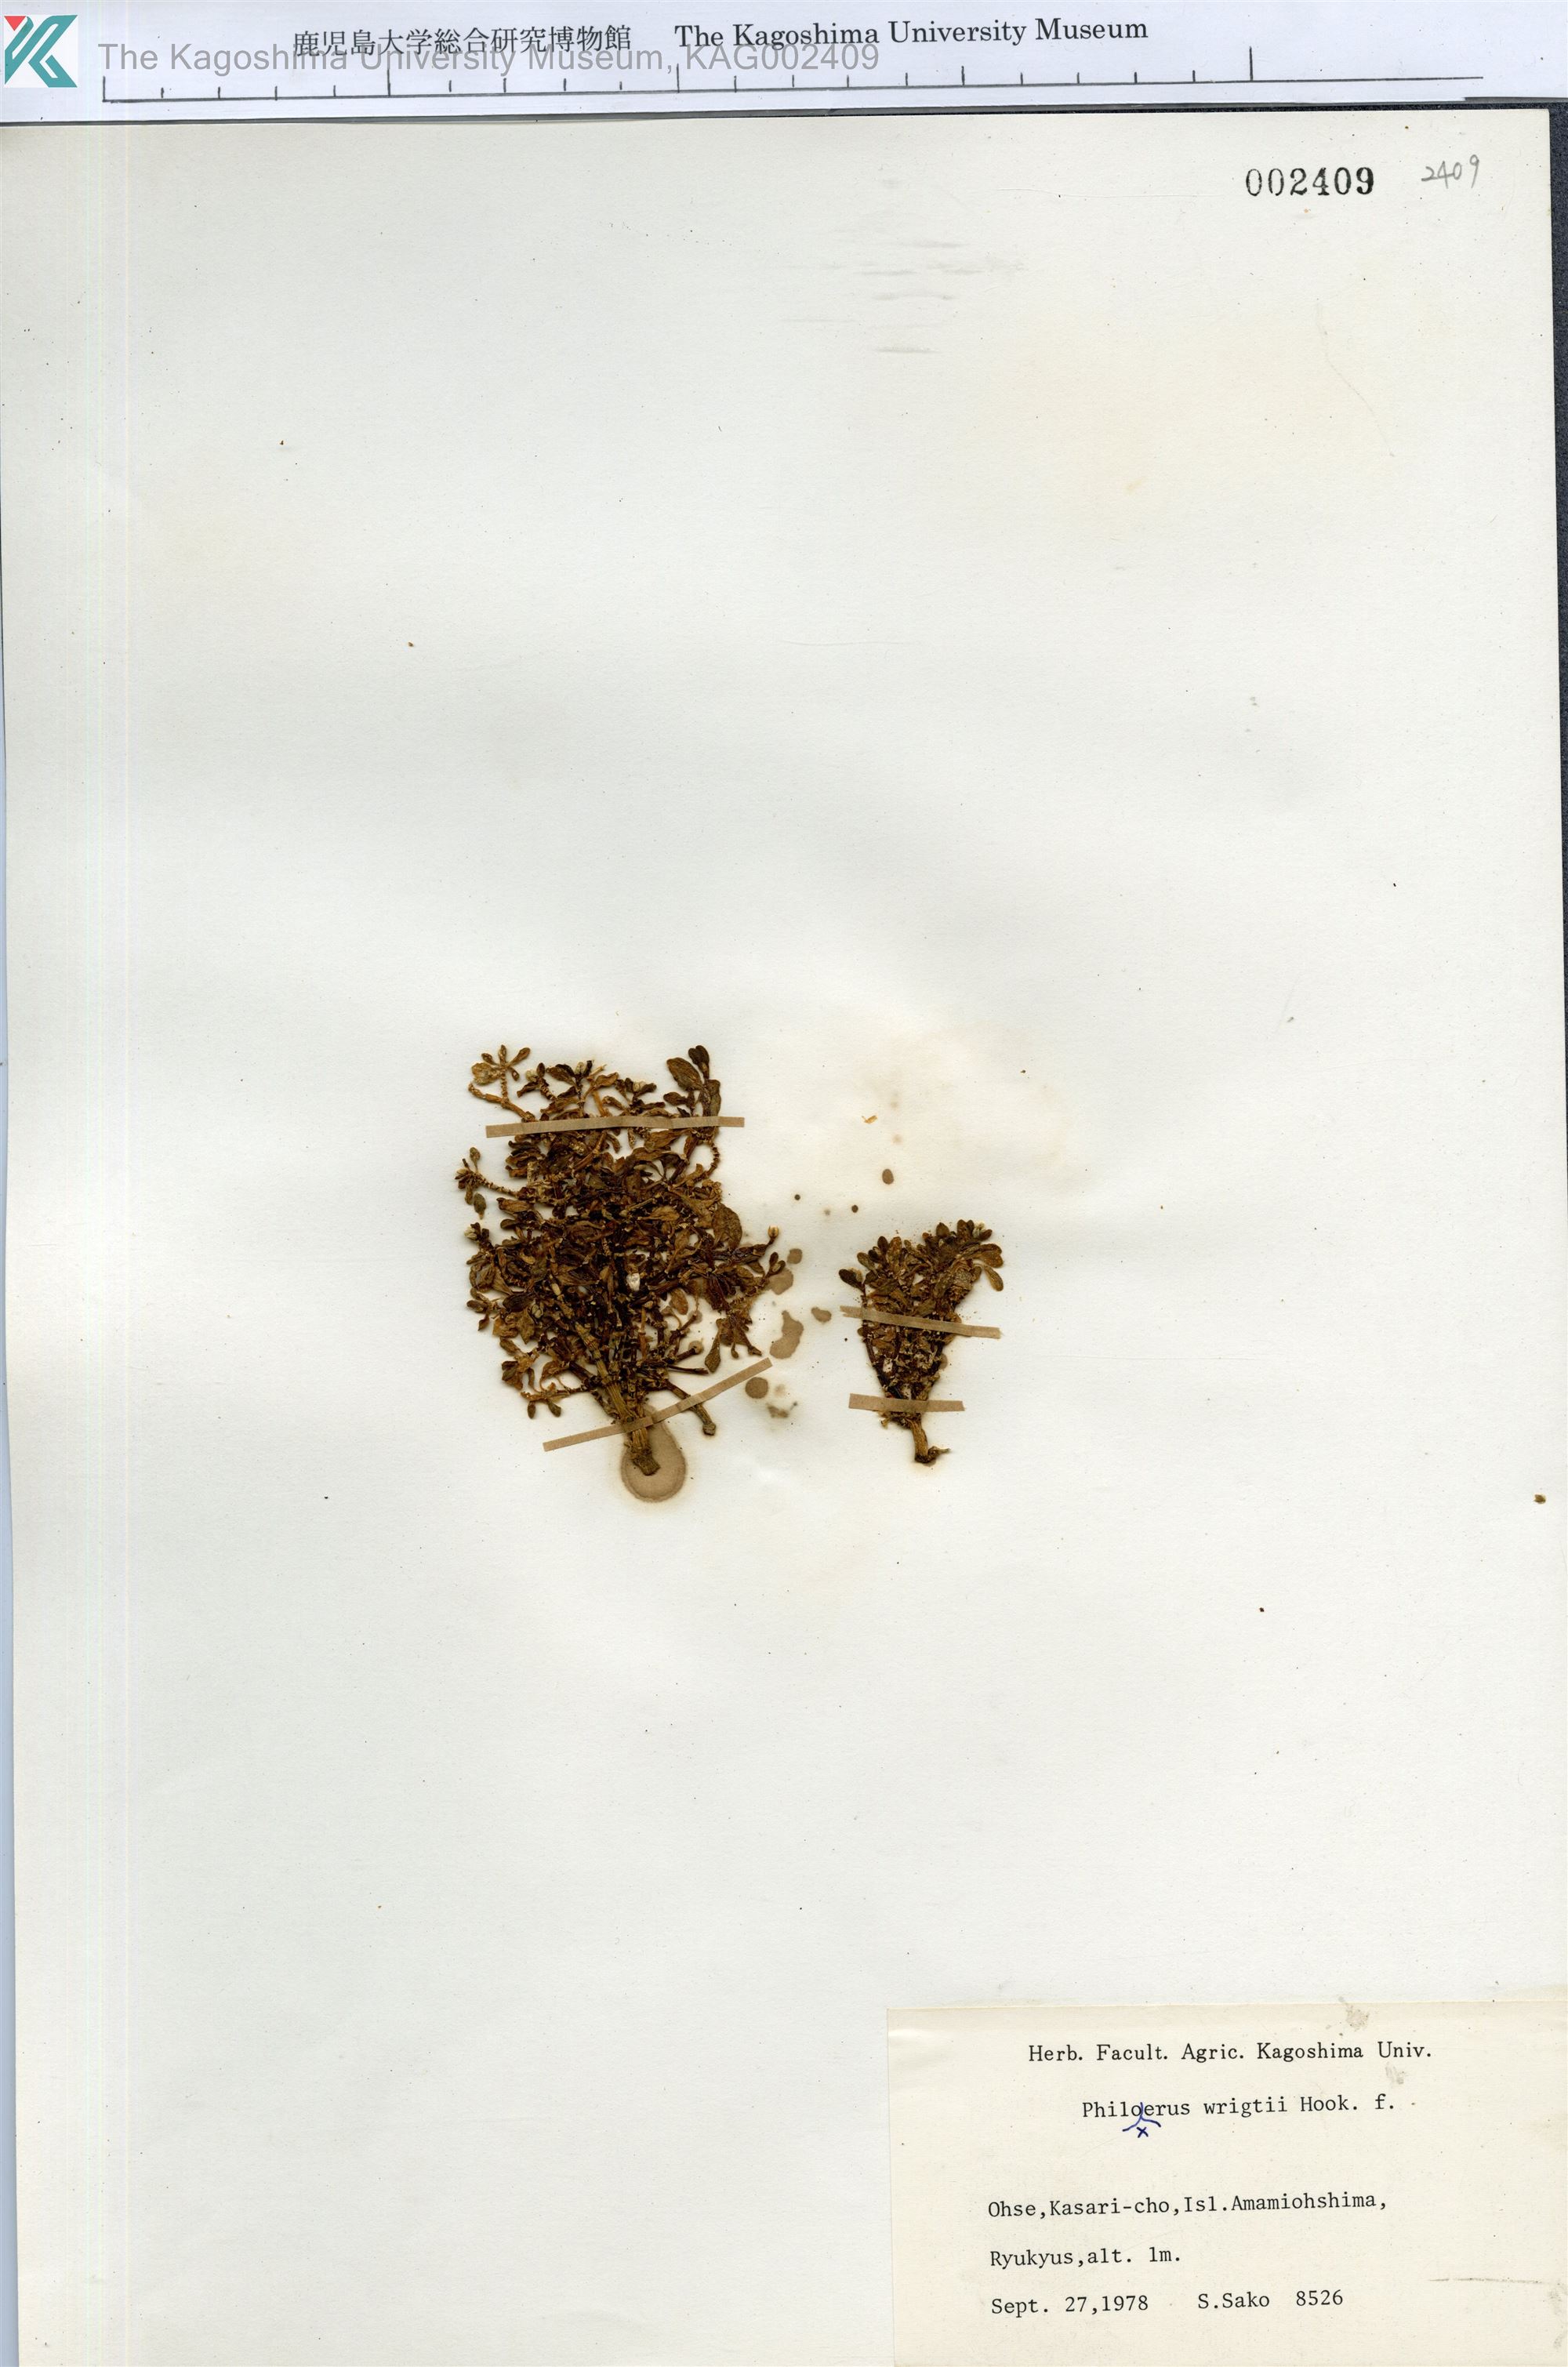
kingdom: Plantae
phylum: Tracheophyta
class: Magnoliopsida
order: Caryophyllales
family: Amaranthaceae
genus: Gomphrena
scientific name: Gomphrena wrightii
